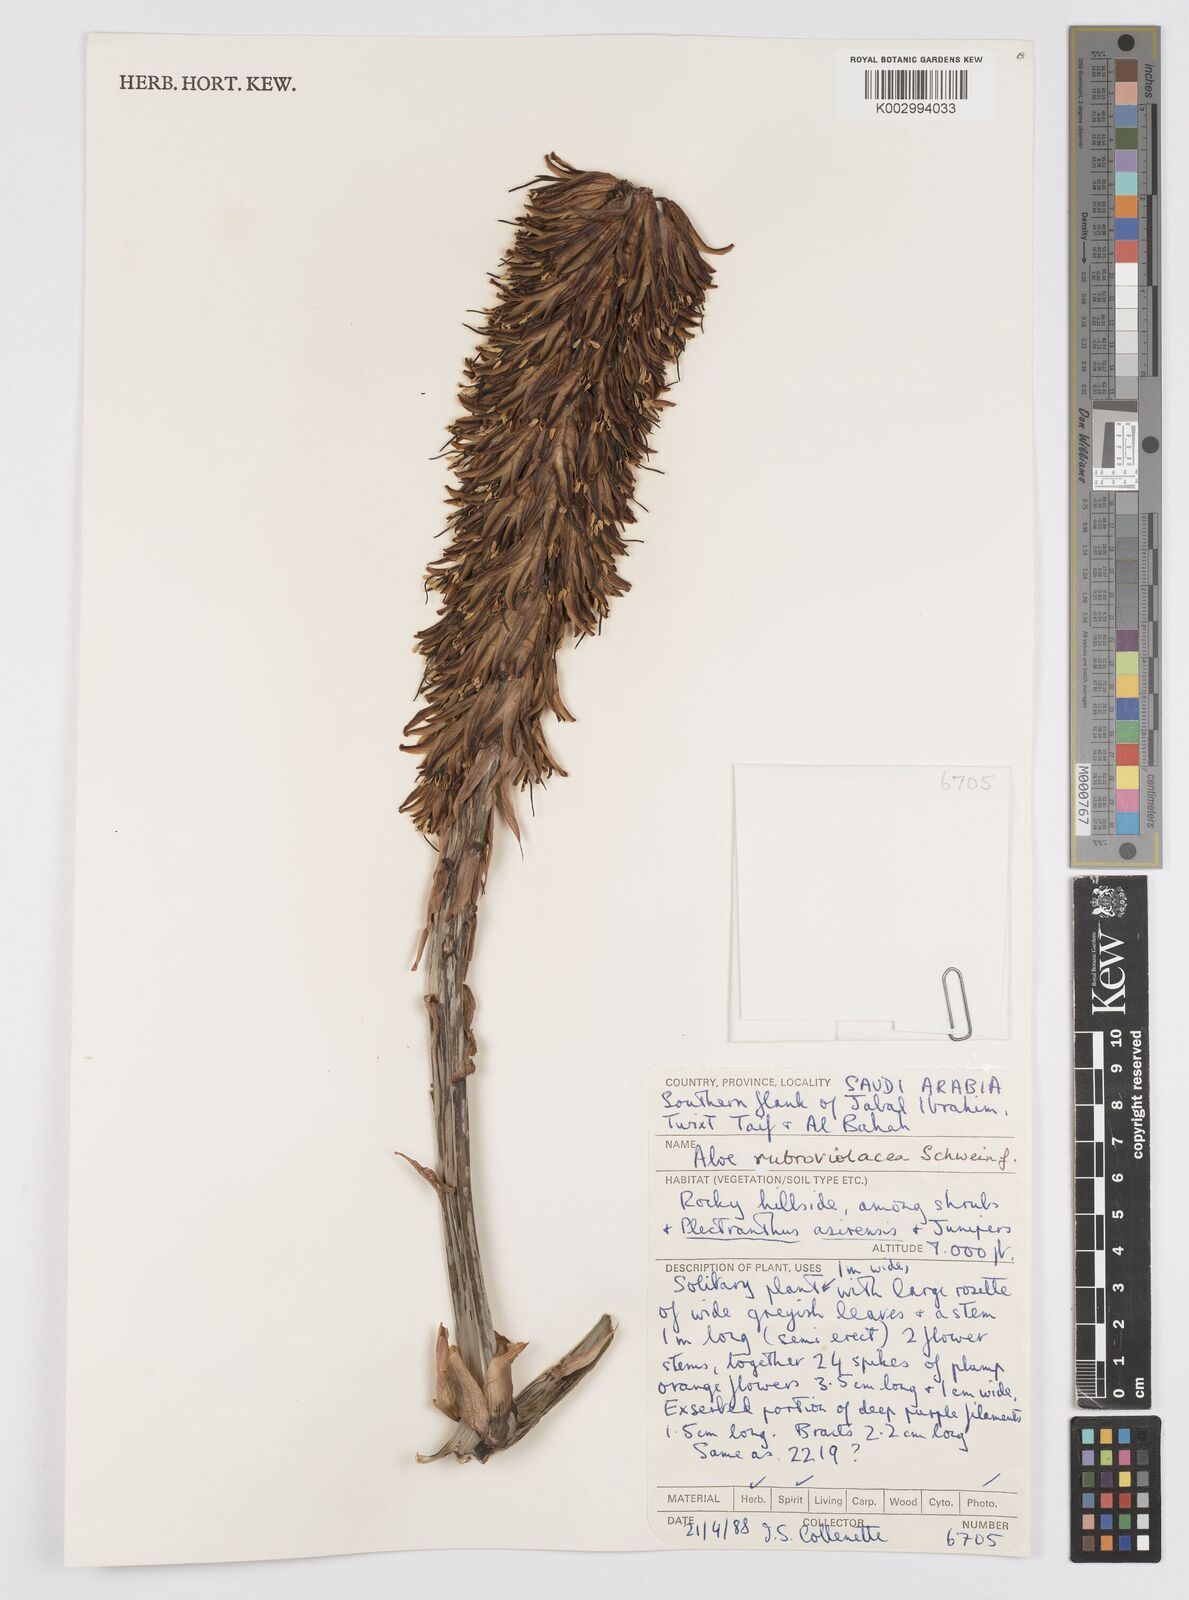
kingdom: Plantae
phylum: Tracheophyta
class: Liliopsida
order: Asparagales
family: Asphodelaceae
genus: Aloe
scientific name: Aloe rubroviolacea
